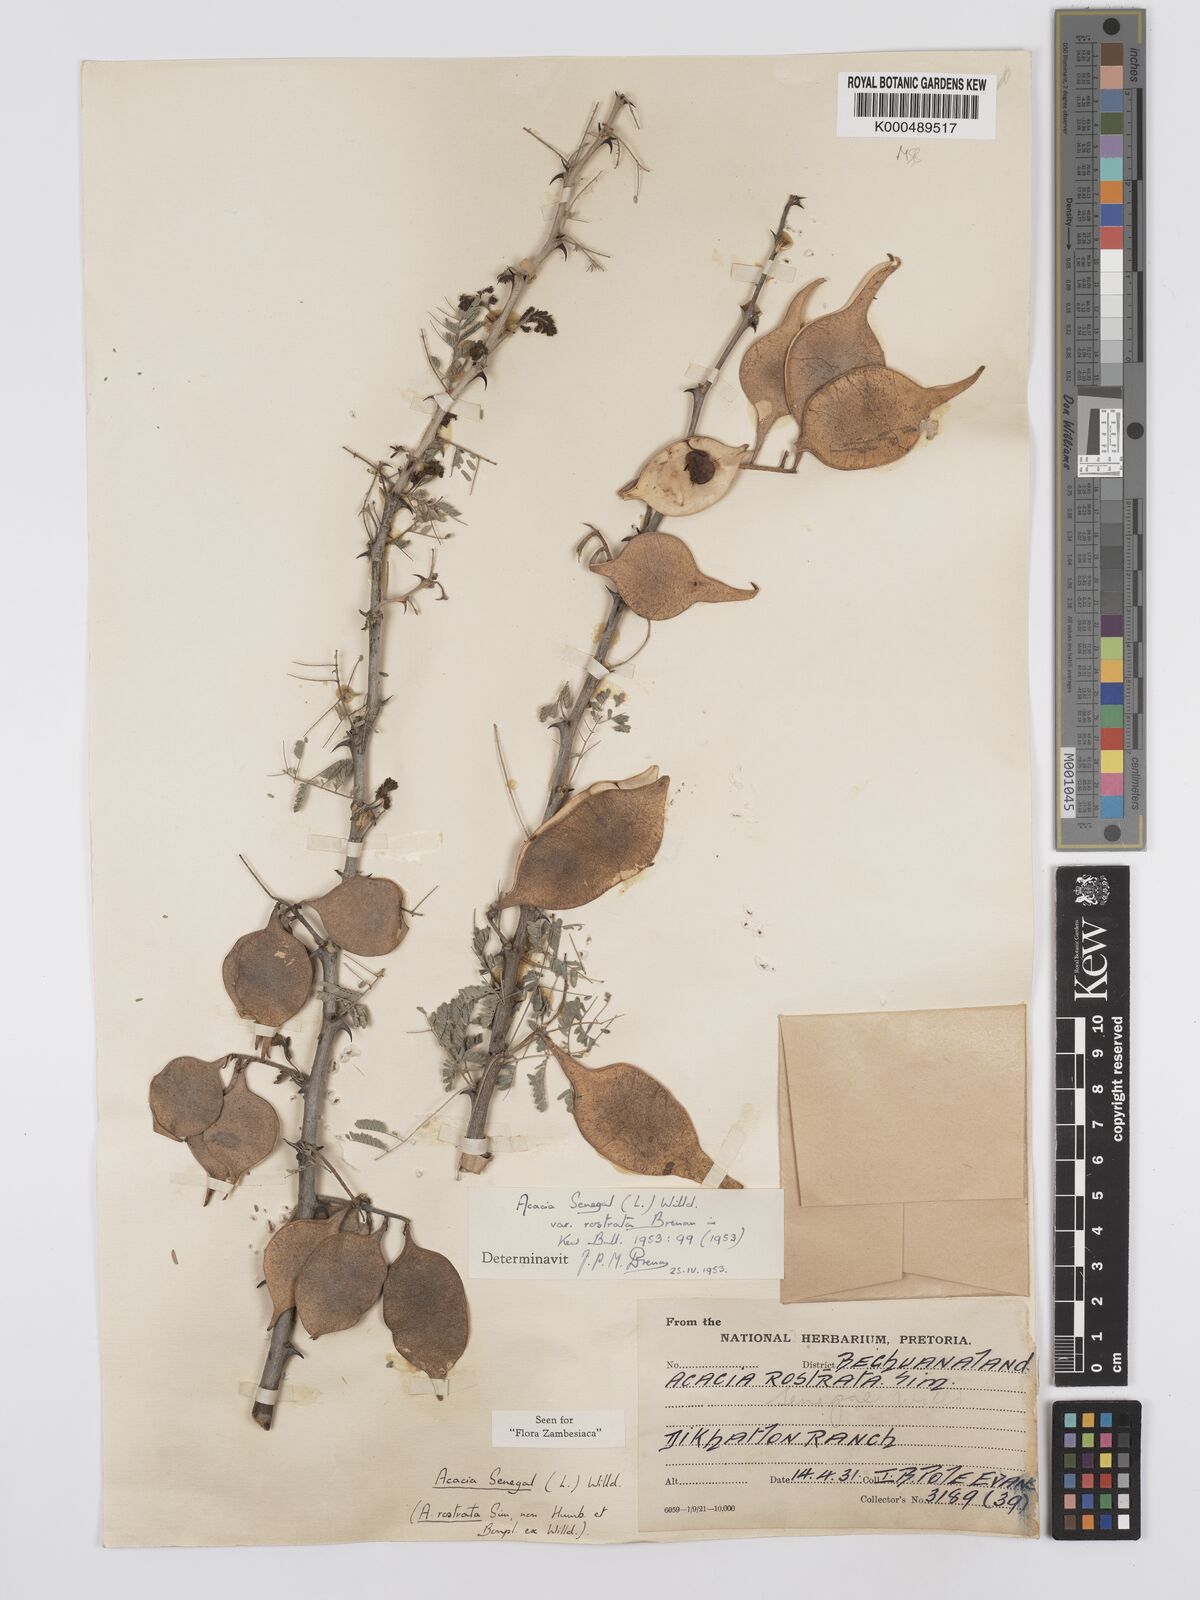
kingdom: Plantae
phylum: Tracheophyta
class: Magnoliopsida
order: Fabales
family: Fabaceae
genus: Senegalia
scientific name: Senegalia senegal
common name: Senegal-gum
